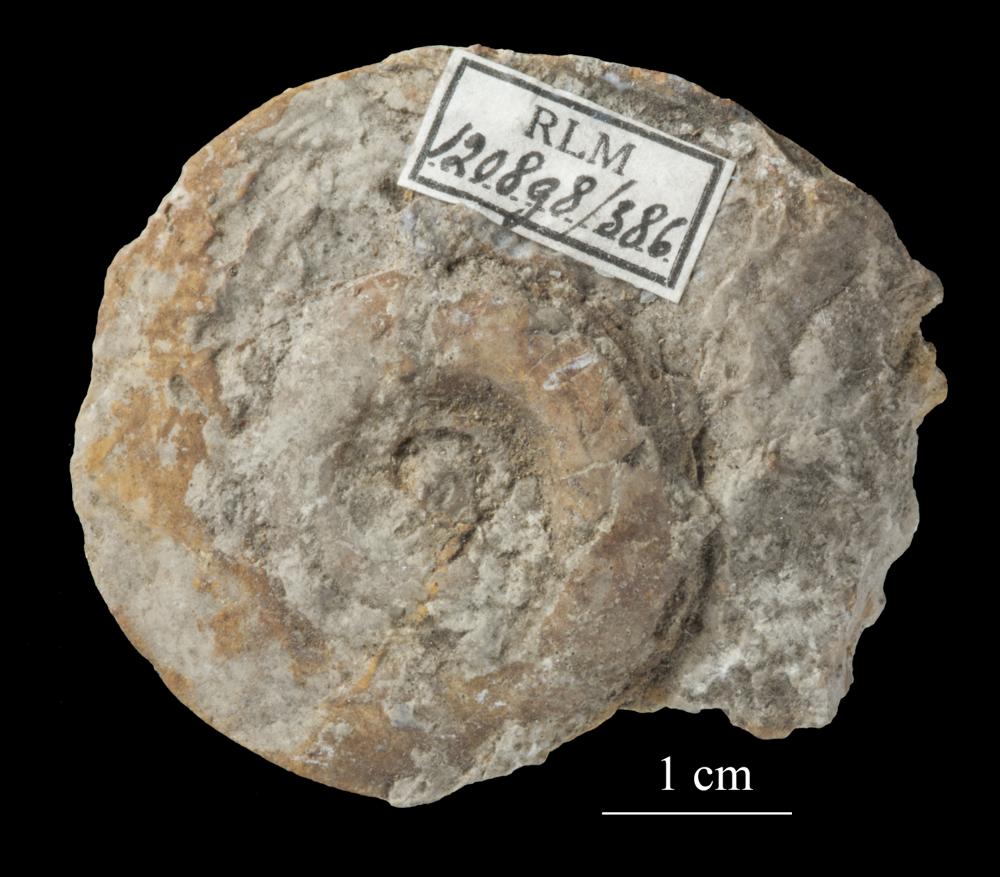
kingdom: Animalia
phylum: Mollusca
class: Gastropoda
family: Euomphalidae
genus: Euomphalus
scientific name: Euomphalus
